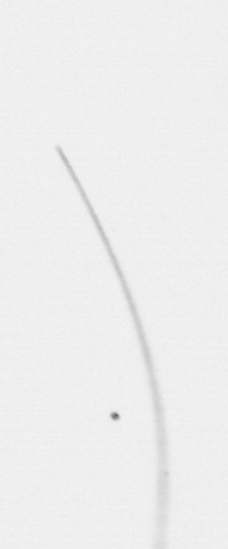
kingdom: Chromista
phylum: Ochrophyta
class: Bacillariophyceae
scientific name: Bacillariophyceae
